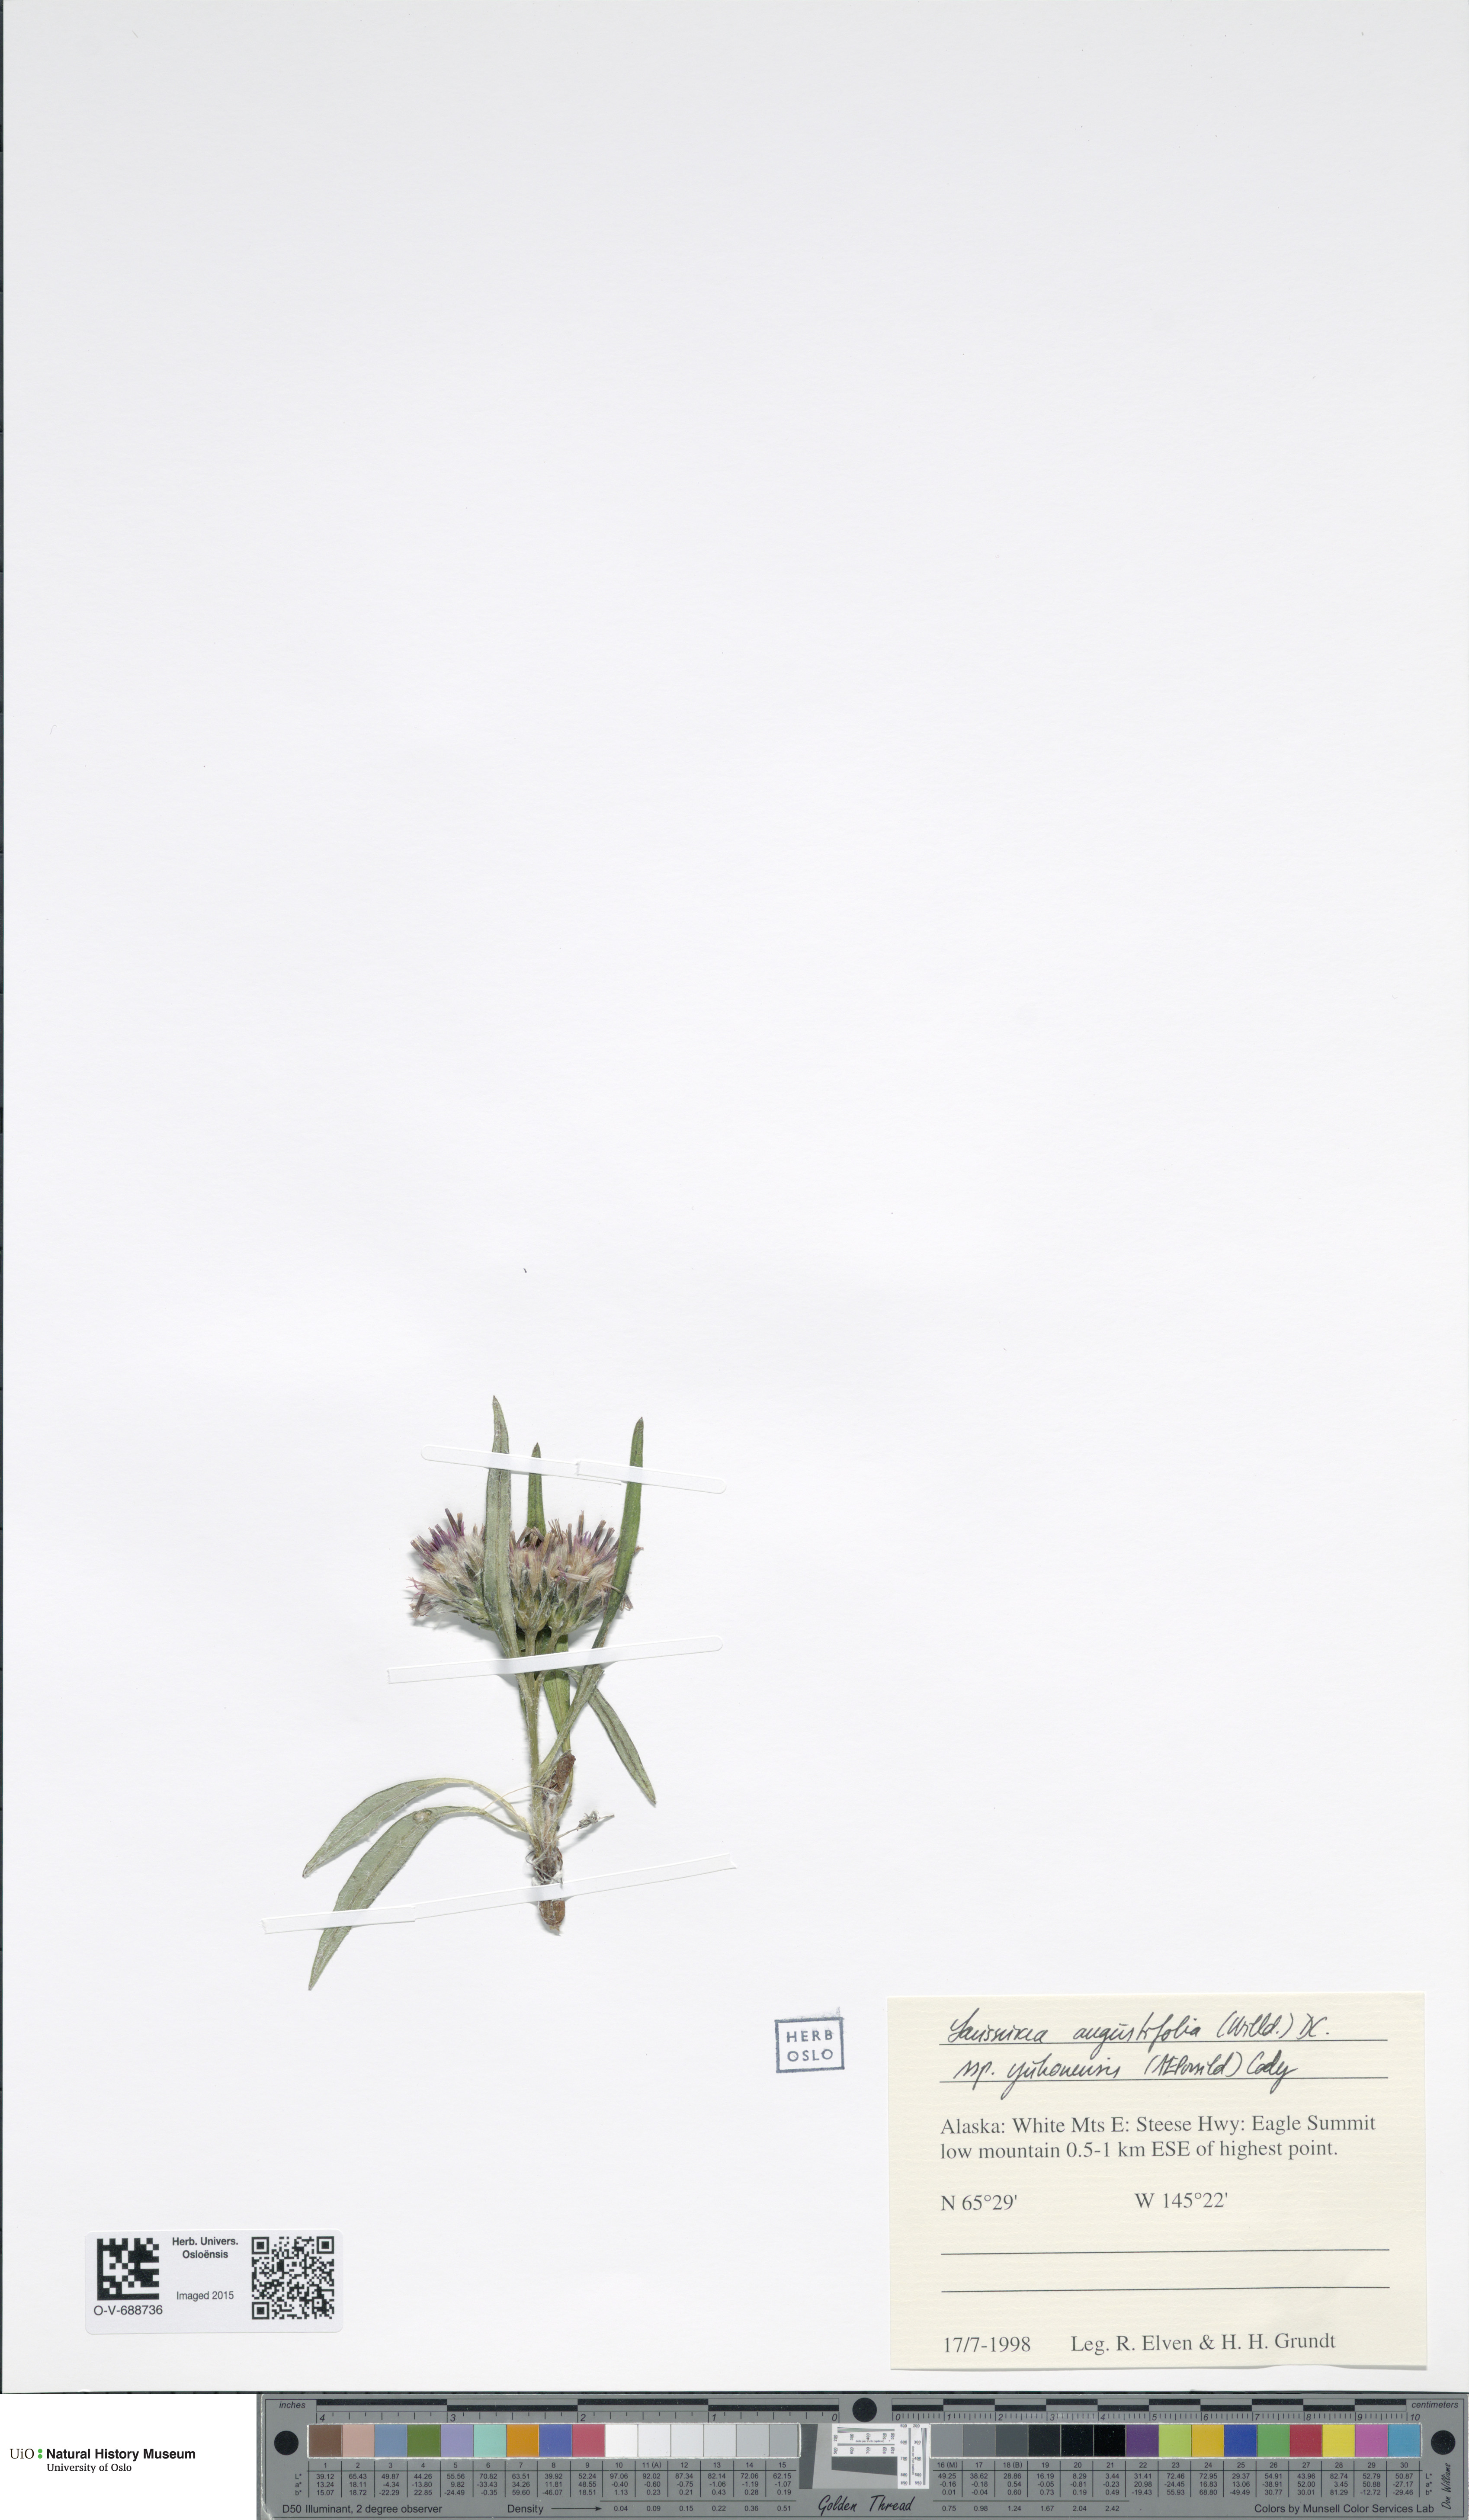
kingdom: Plantae
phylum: Tracheophyta
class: Magnoliopsida
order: Asterales
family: Asteraceae
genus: Saussurea
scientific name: Saussurea angustifolia
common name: Common saussurea
